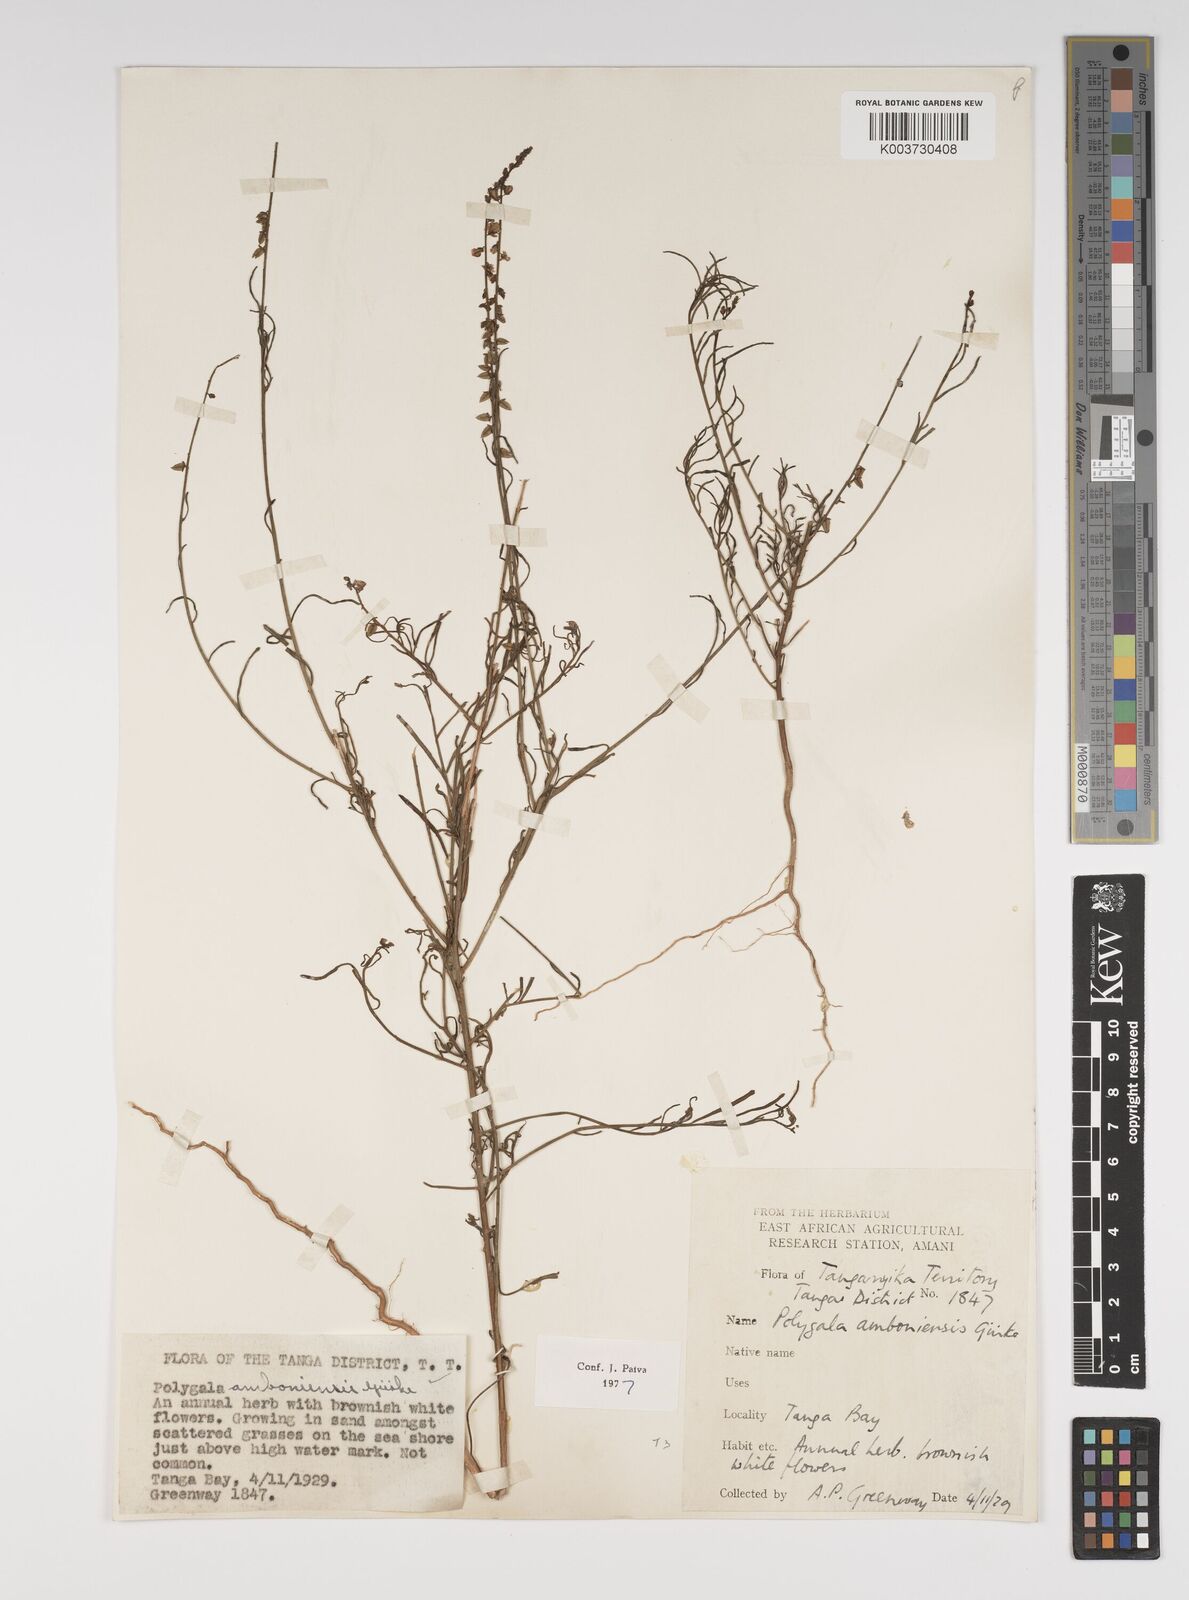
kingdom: Plantae
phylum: Tracheophyta
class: Magnoliopsida
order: Fabales
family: Polygalaceae
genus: Polygala
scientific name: Polygala amboniensis
